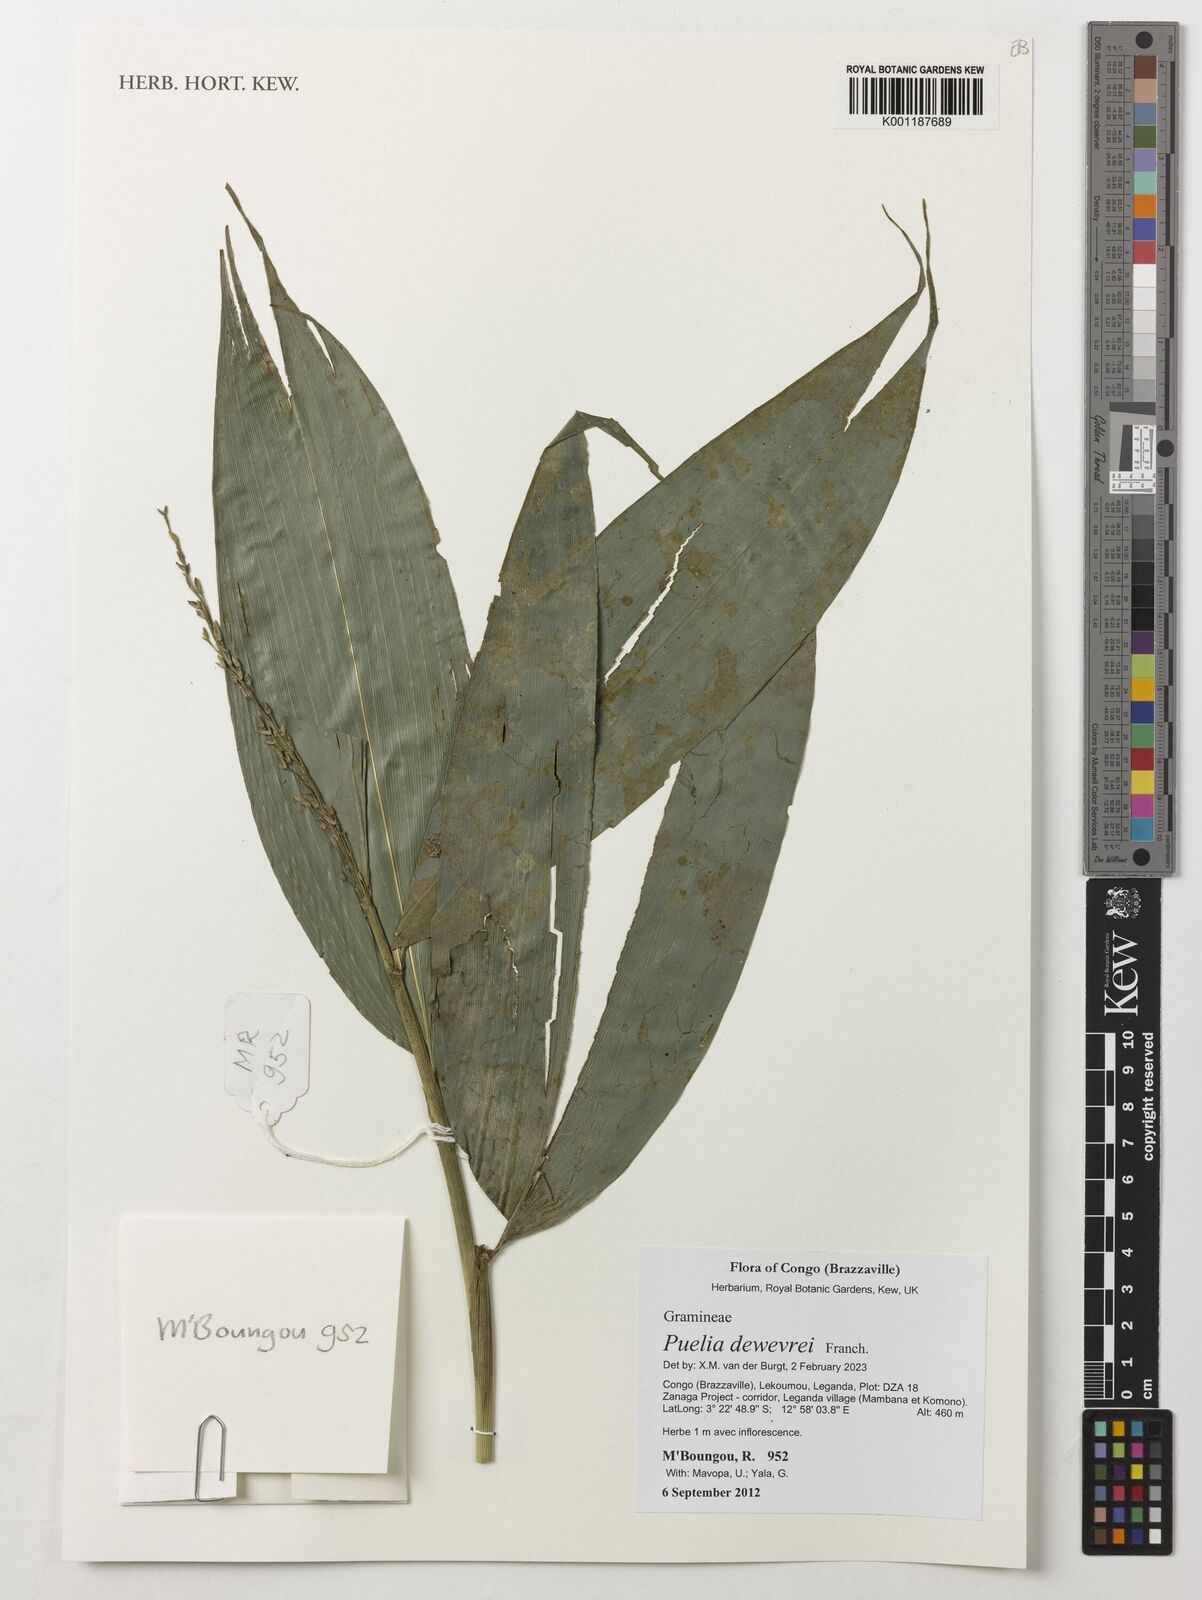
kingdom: Plantae
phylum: Tracheophyta
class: Liliopsida
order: Poales
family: Poaceae
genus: Puelia
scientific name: Puelia dewevrei
